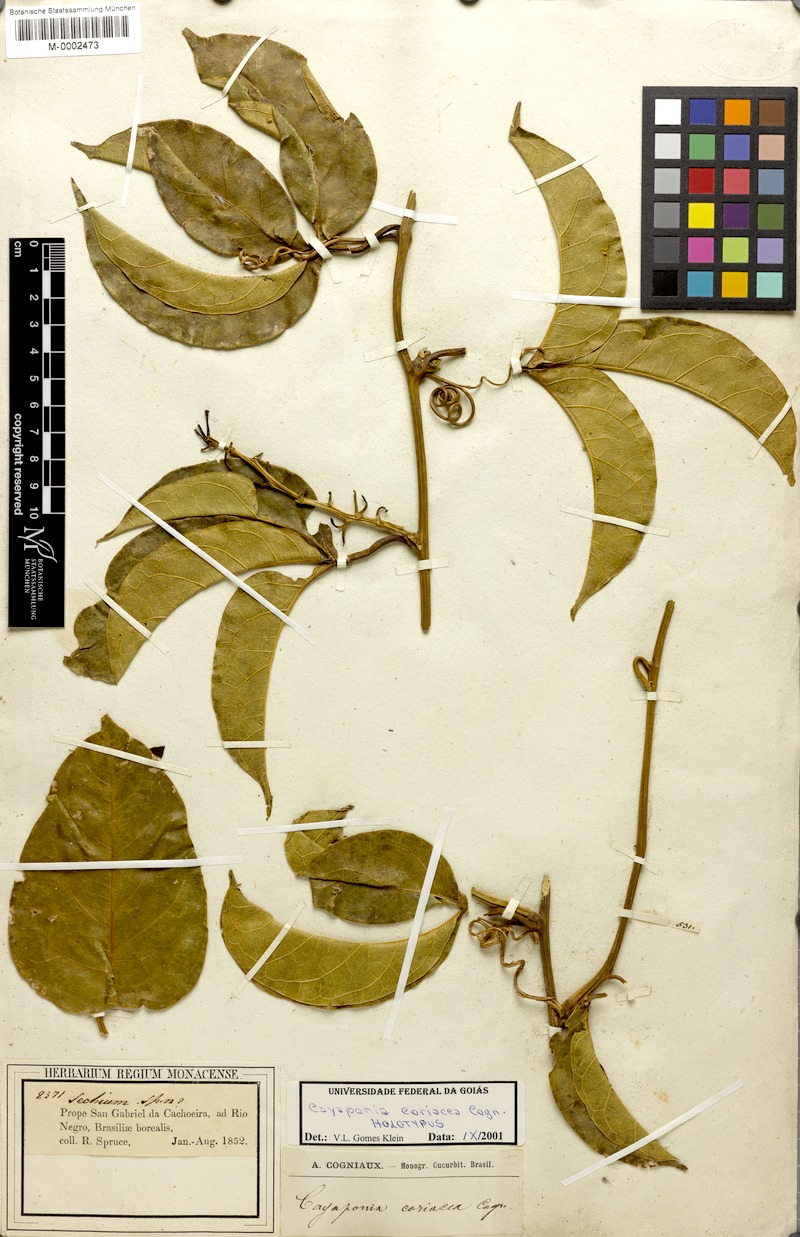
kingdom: Plantae
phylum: Tracheophyta
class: Magnoliopsida
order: Cucurbitales
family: Cucurbitaceae
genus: Cayaponia
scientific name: Cayaponia coriacea
